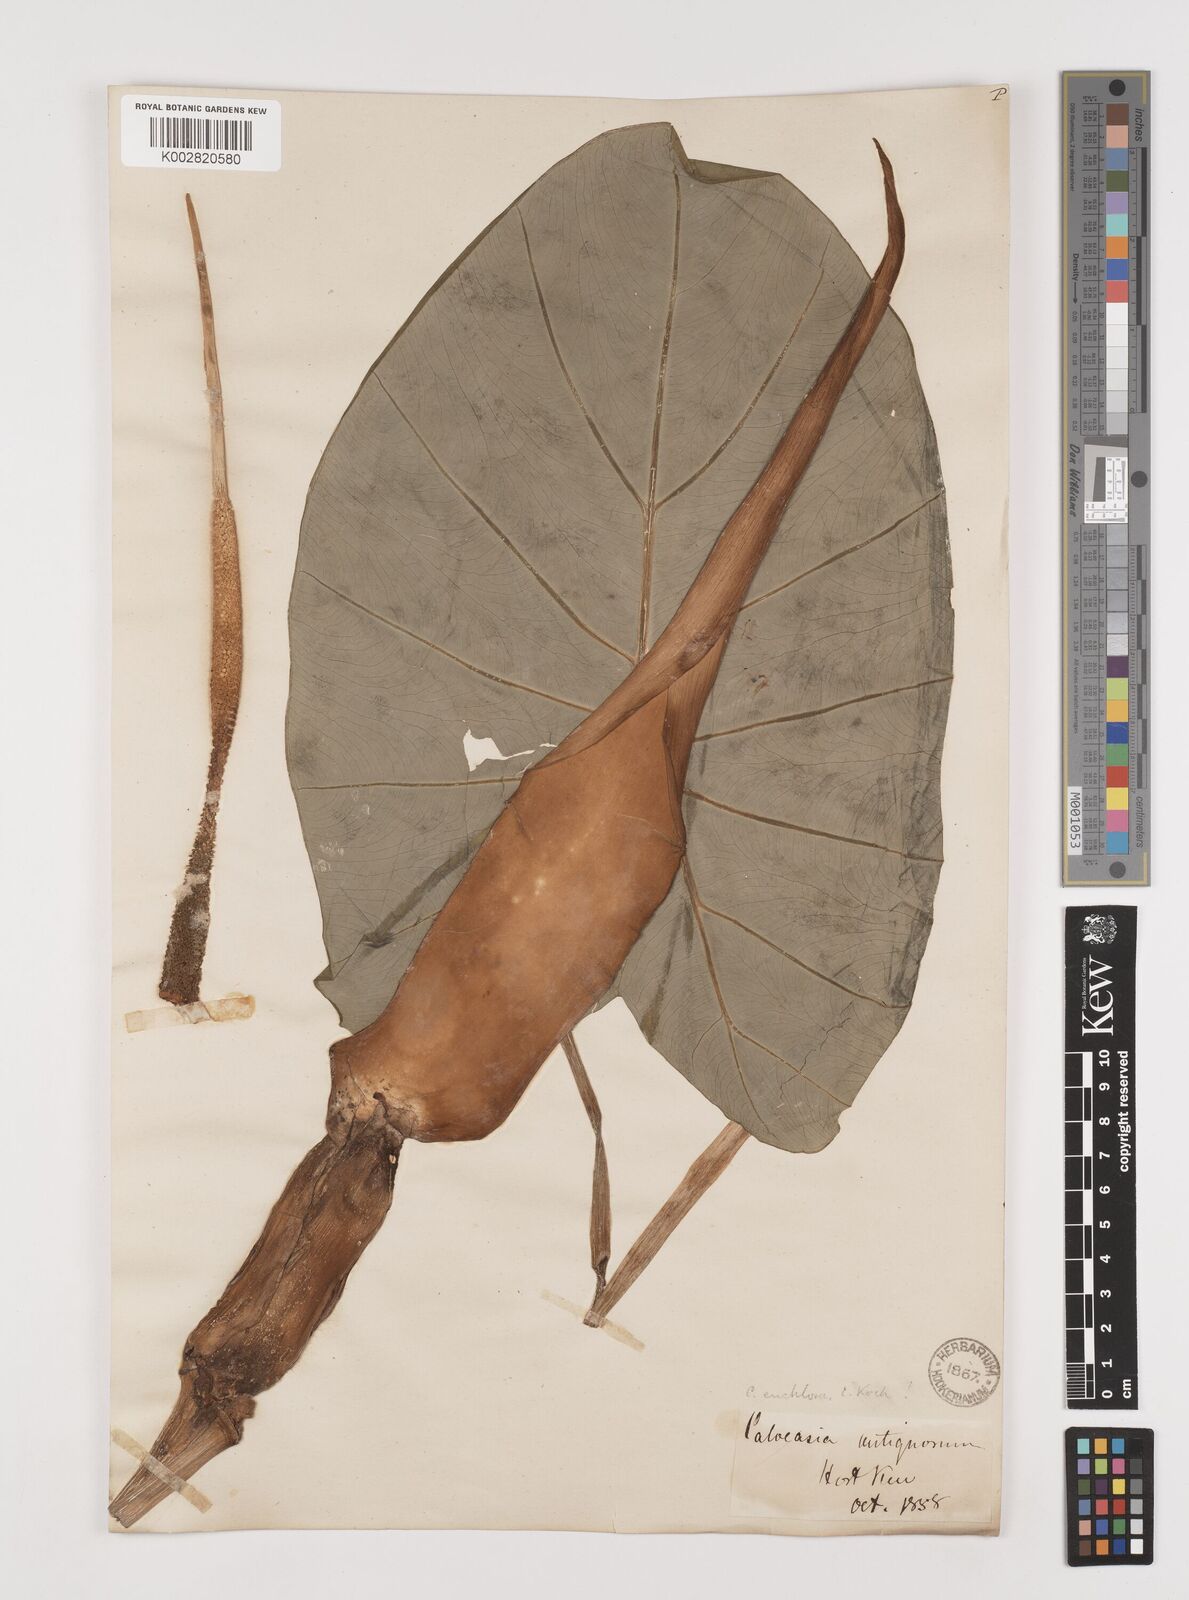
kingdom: Plantae
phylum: Tracheophyta
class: Liliopsida
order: Alismatales
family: Araceae
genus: Colocasia
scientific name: Colocasia esculenta
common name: Taro
